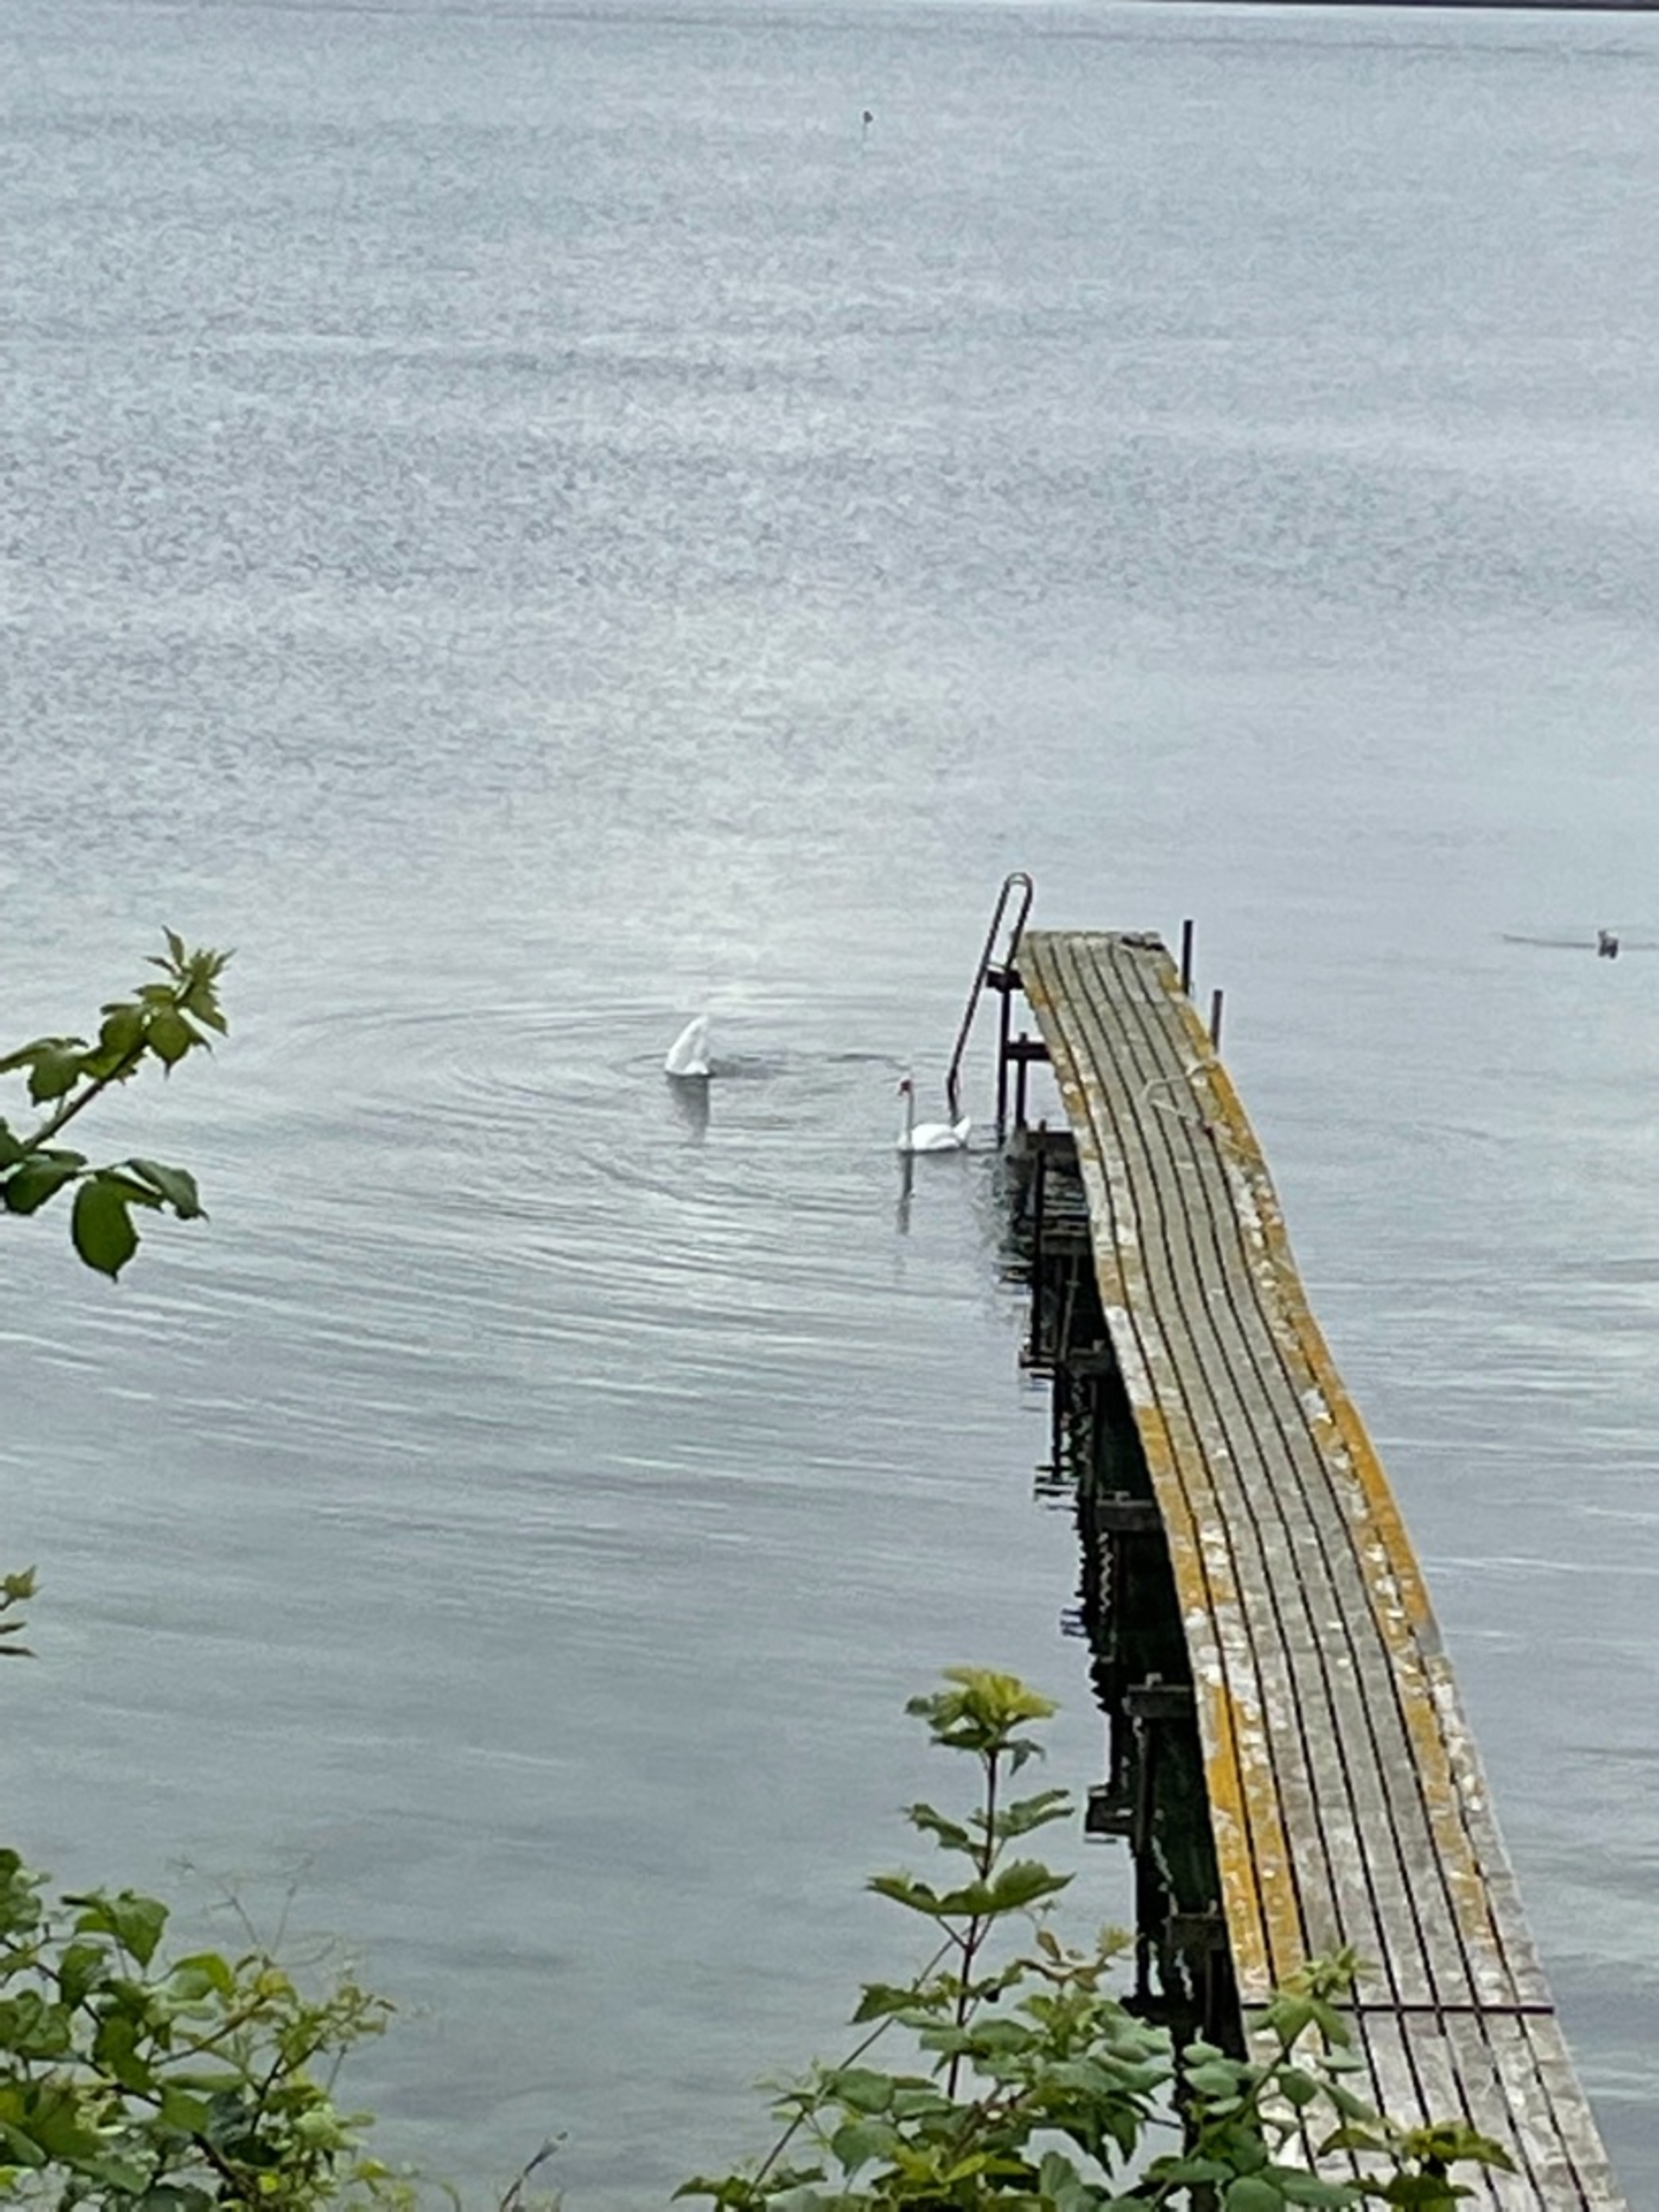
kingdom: Animalia
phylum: Chordata
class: Aves
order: Anseriformes
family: Anatidae
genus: Cygnus
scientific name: Cygnus olor
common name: Knopsvane
